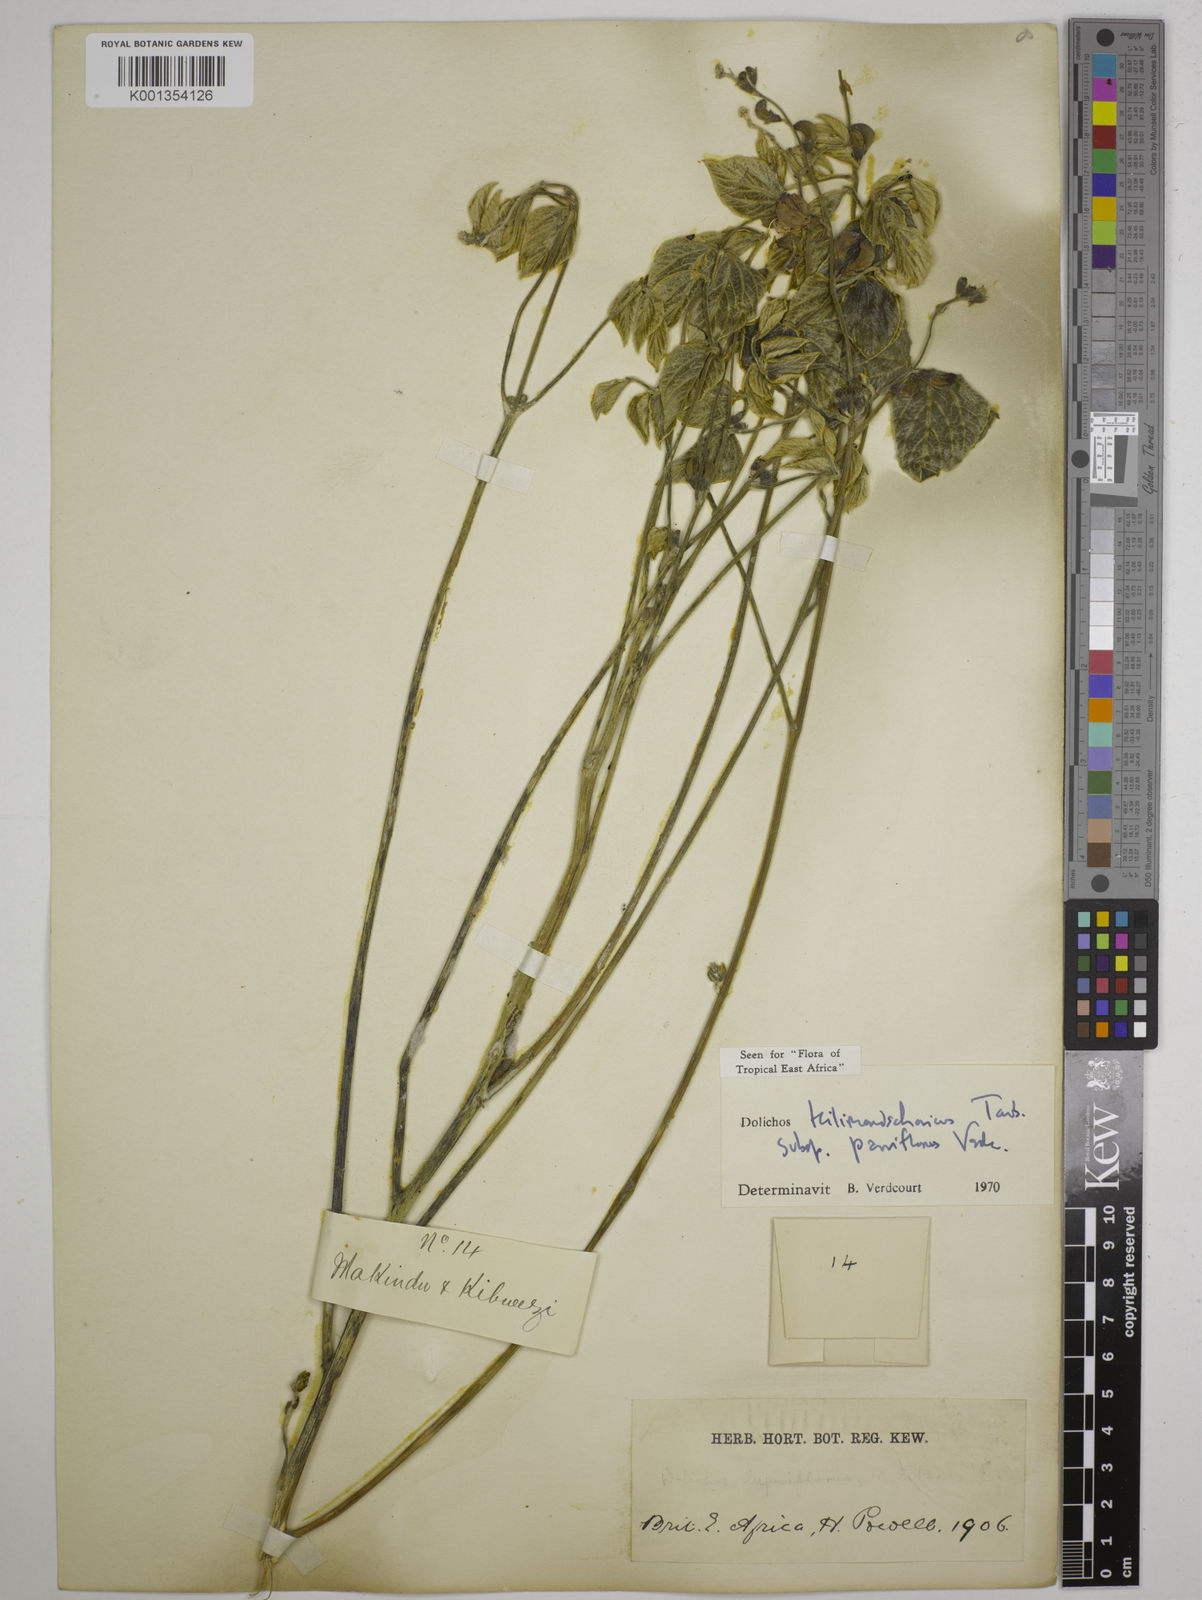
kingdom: Plantae
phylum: Tracheophyta
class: Magnoliopsida
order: Fabales
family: Fabaceae
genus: Dolichos
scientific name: Dolichos
